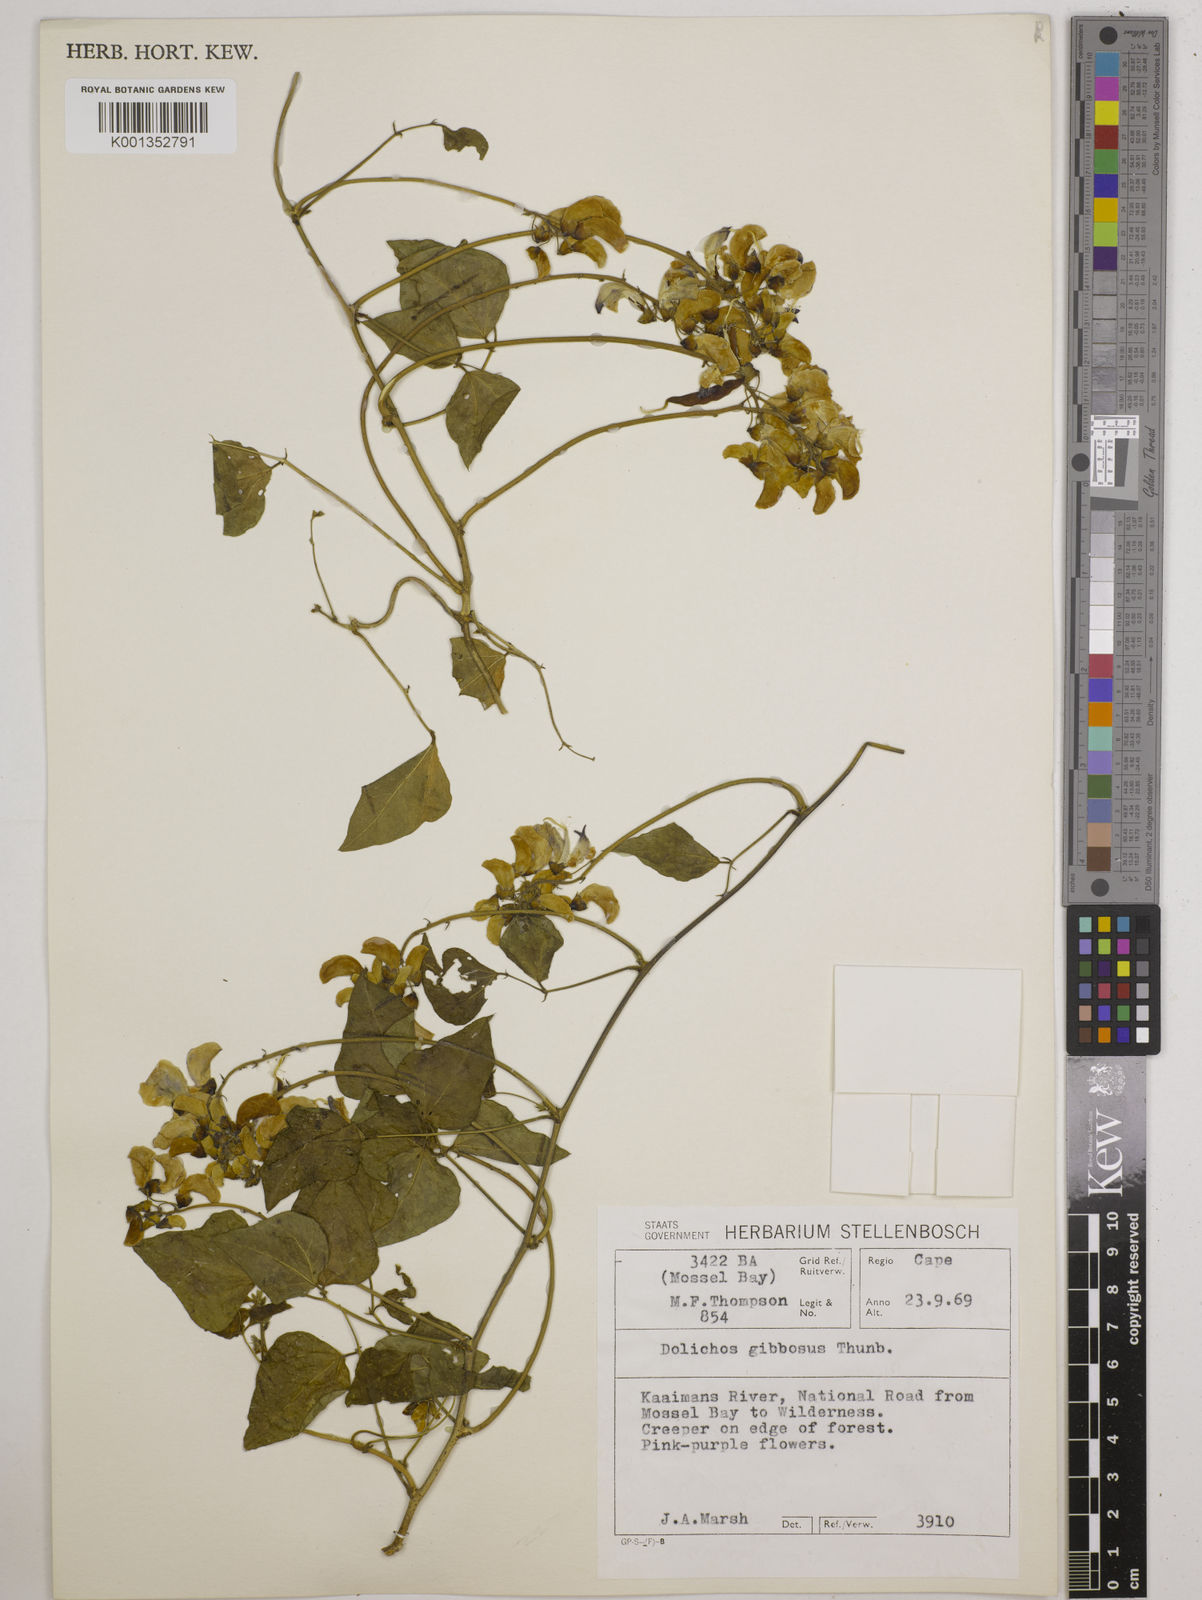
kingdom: Plantae
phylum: Tracheophyta
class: Magnoliopsida
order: Fabales
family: Fabaceae
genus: Dipogon
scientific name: Dipogon lignosus
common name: Okie bean
